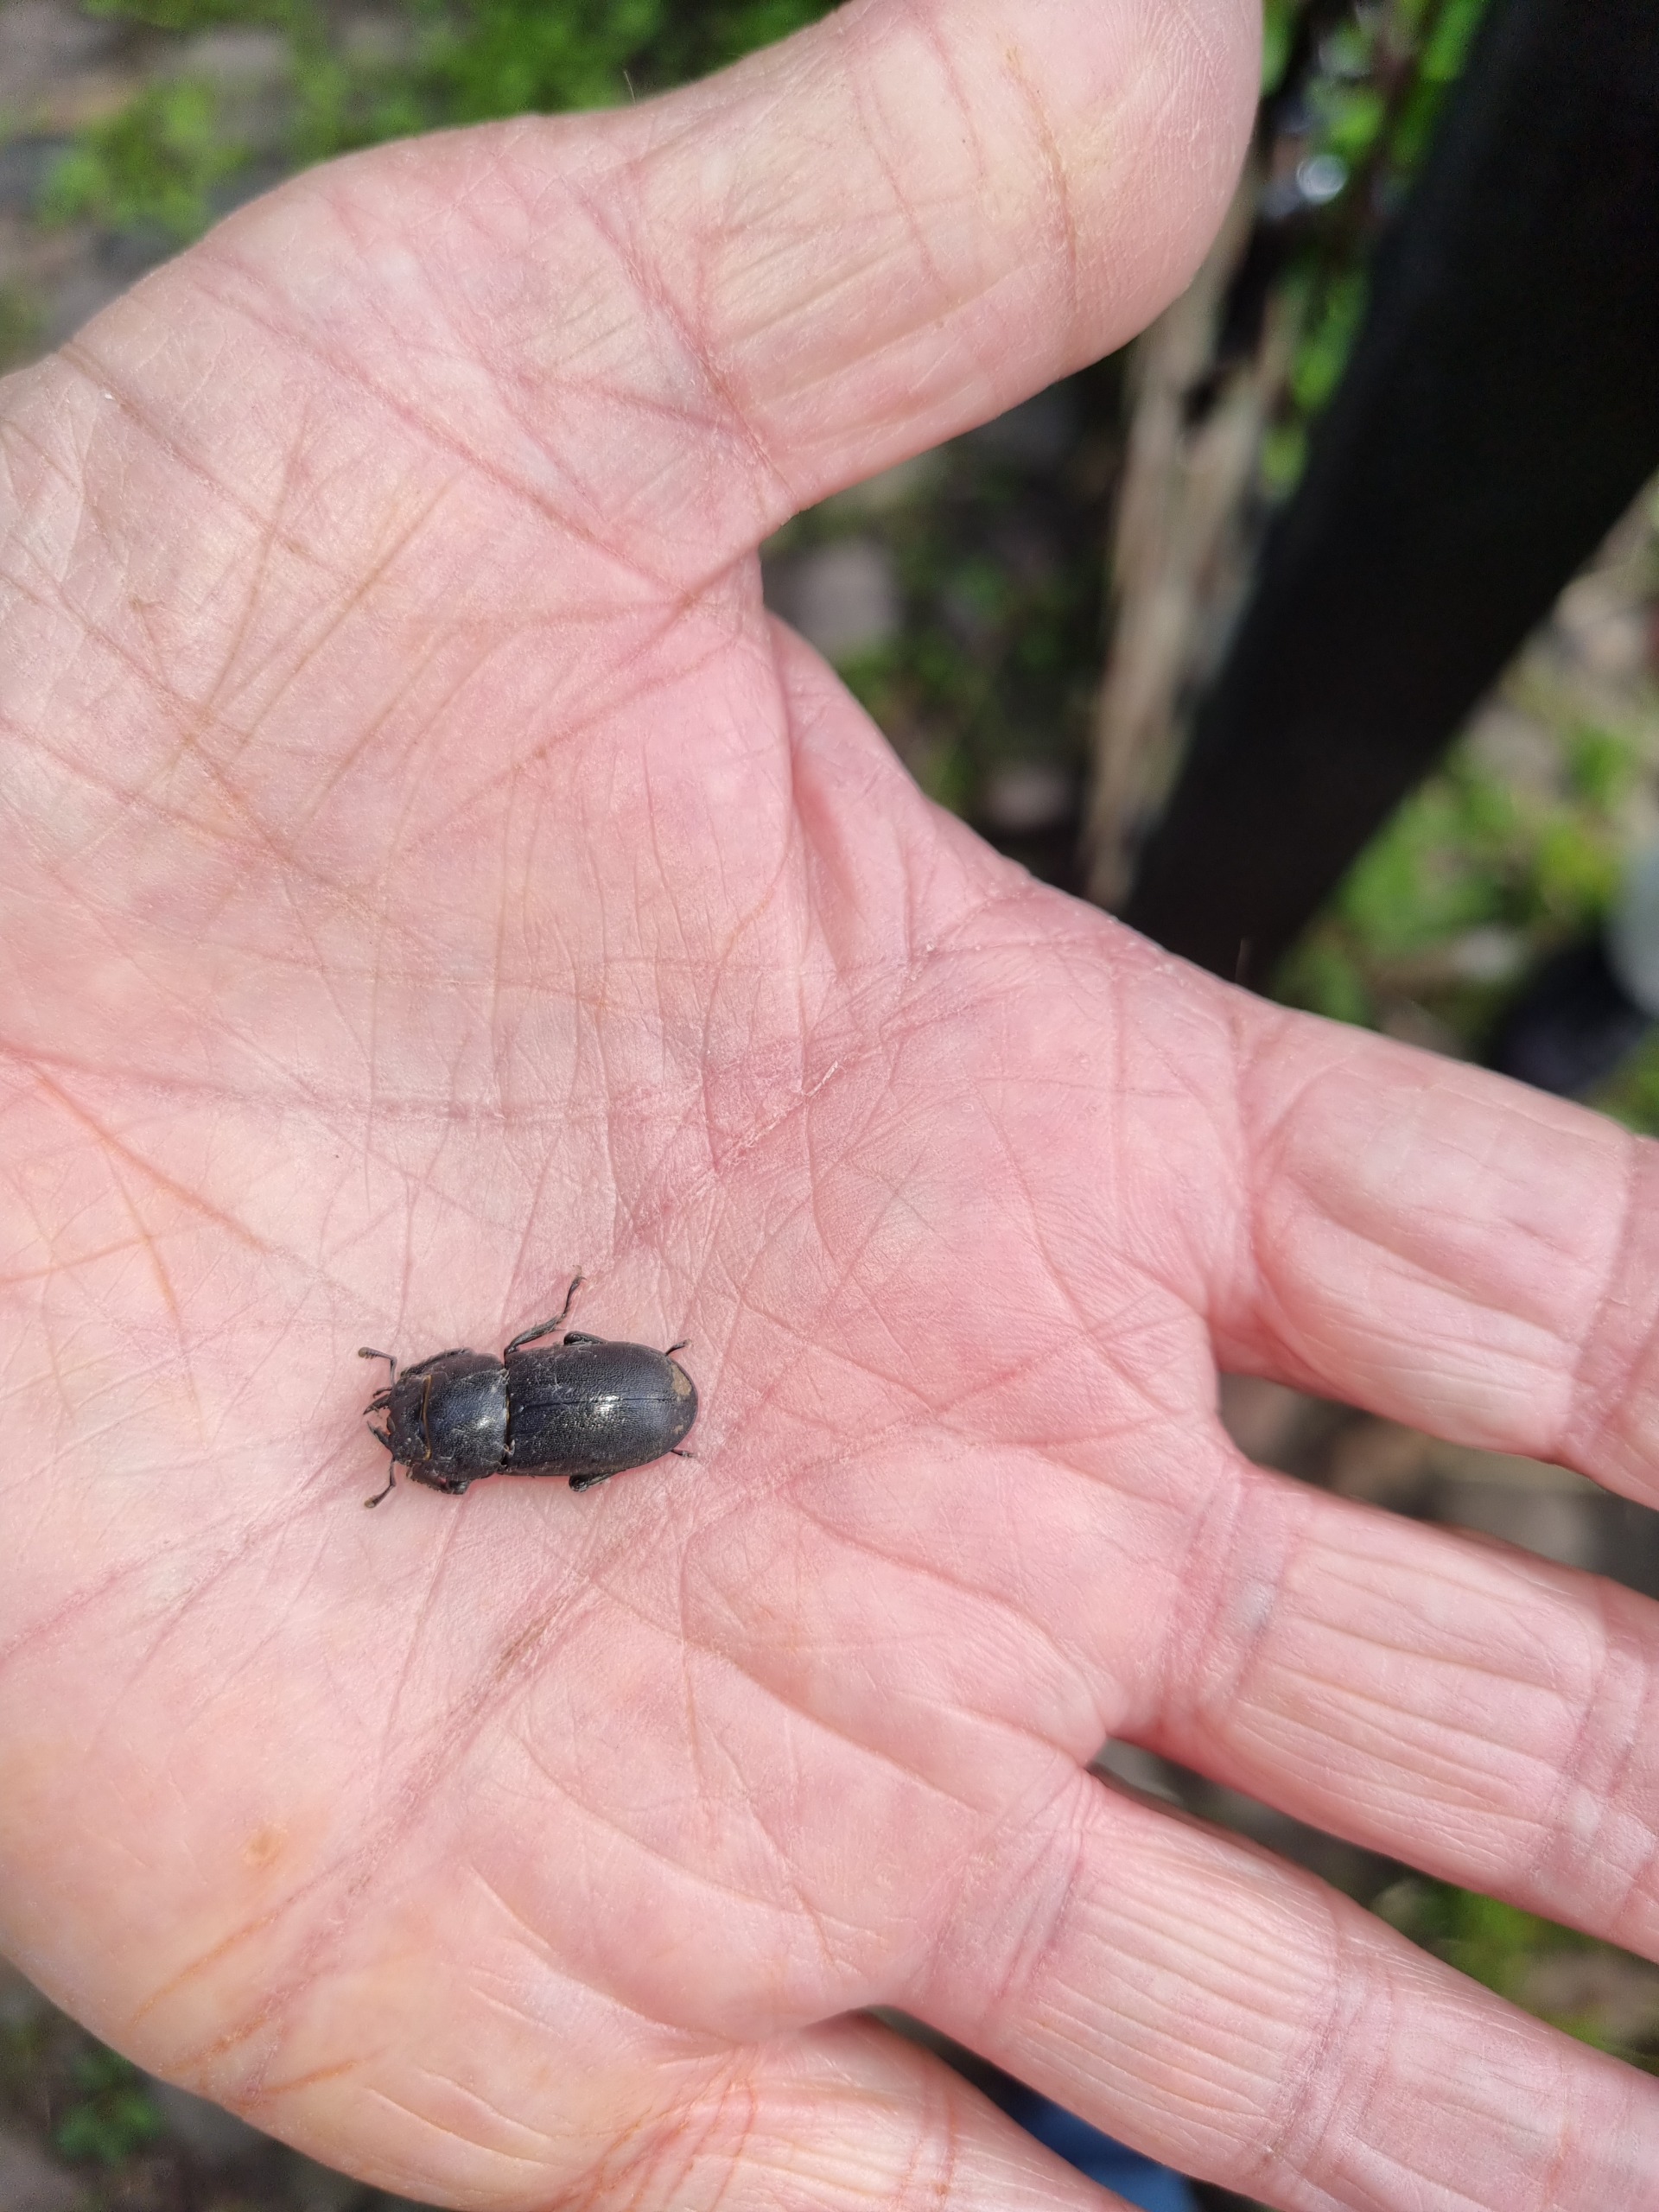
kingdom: Animalia
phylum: Arthropoda
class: Insecta
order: Coleoptera
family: Lucanidae
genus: Dorcus
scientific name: Dorcus parallelipipedus
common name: Bøghjort
